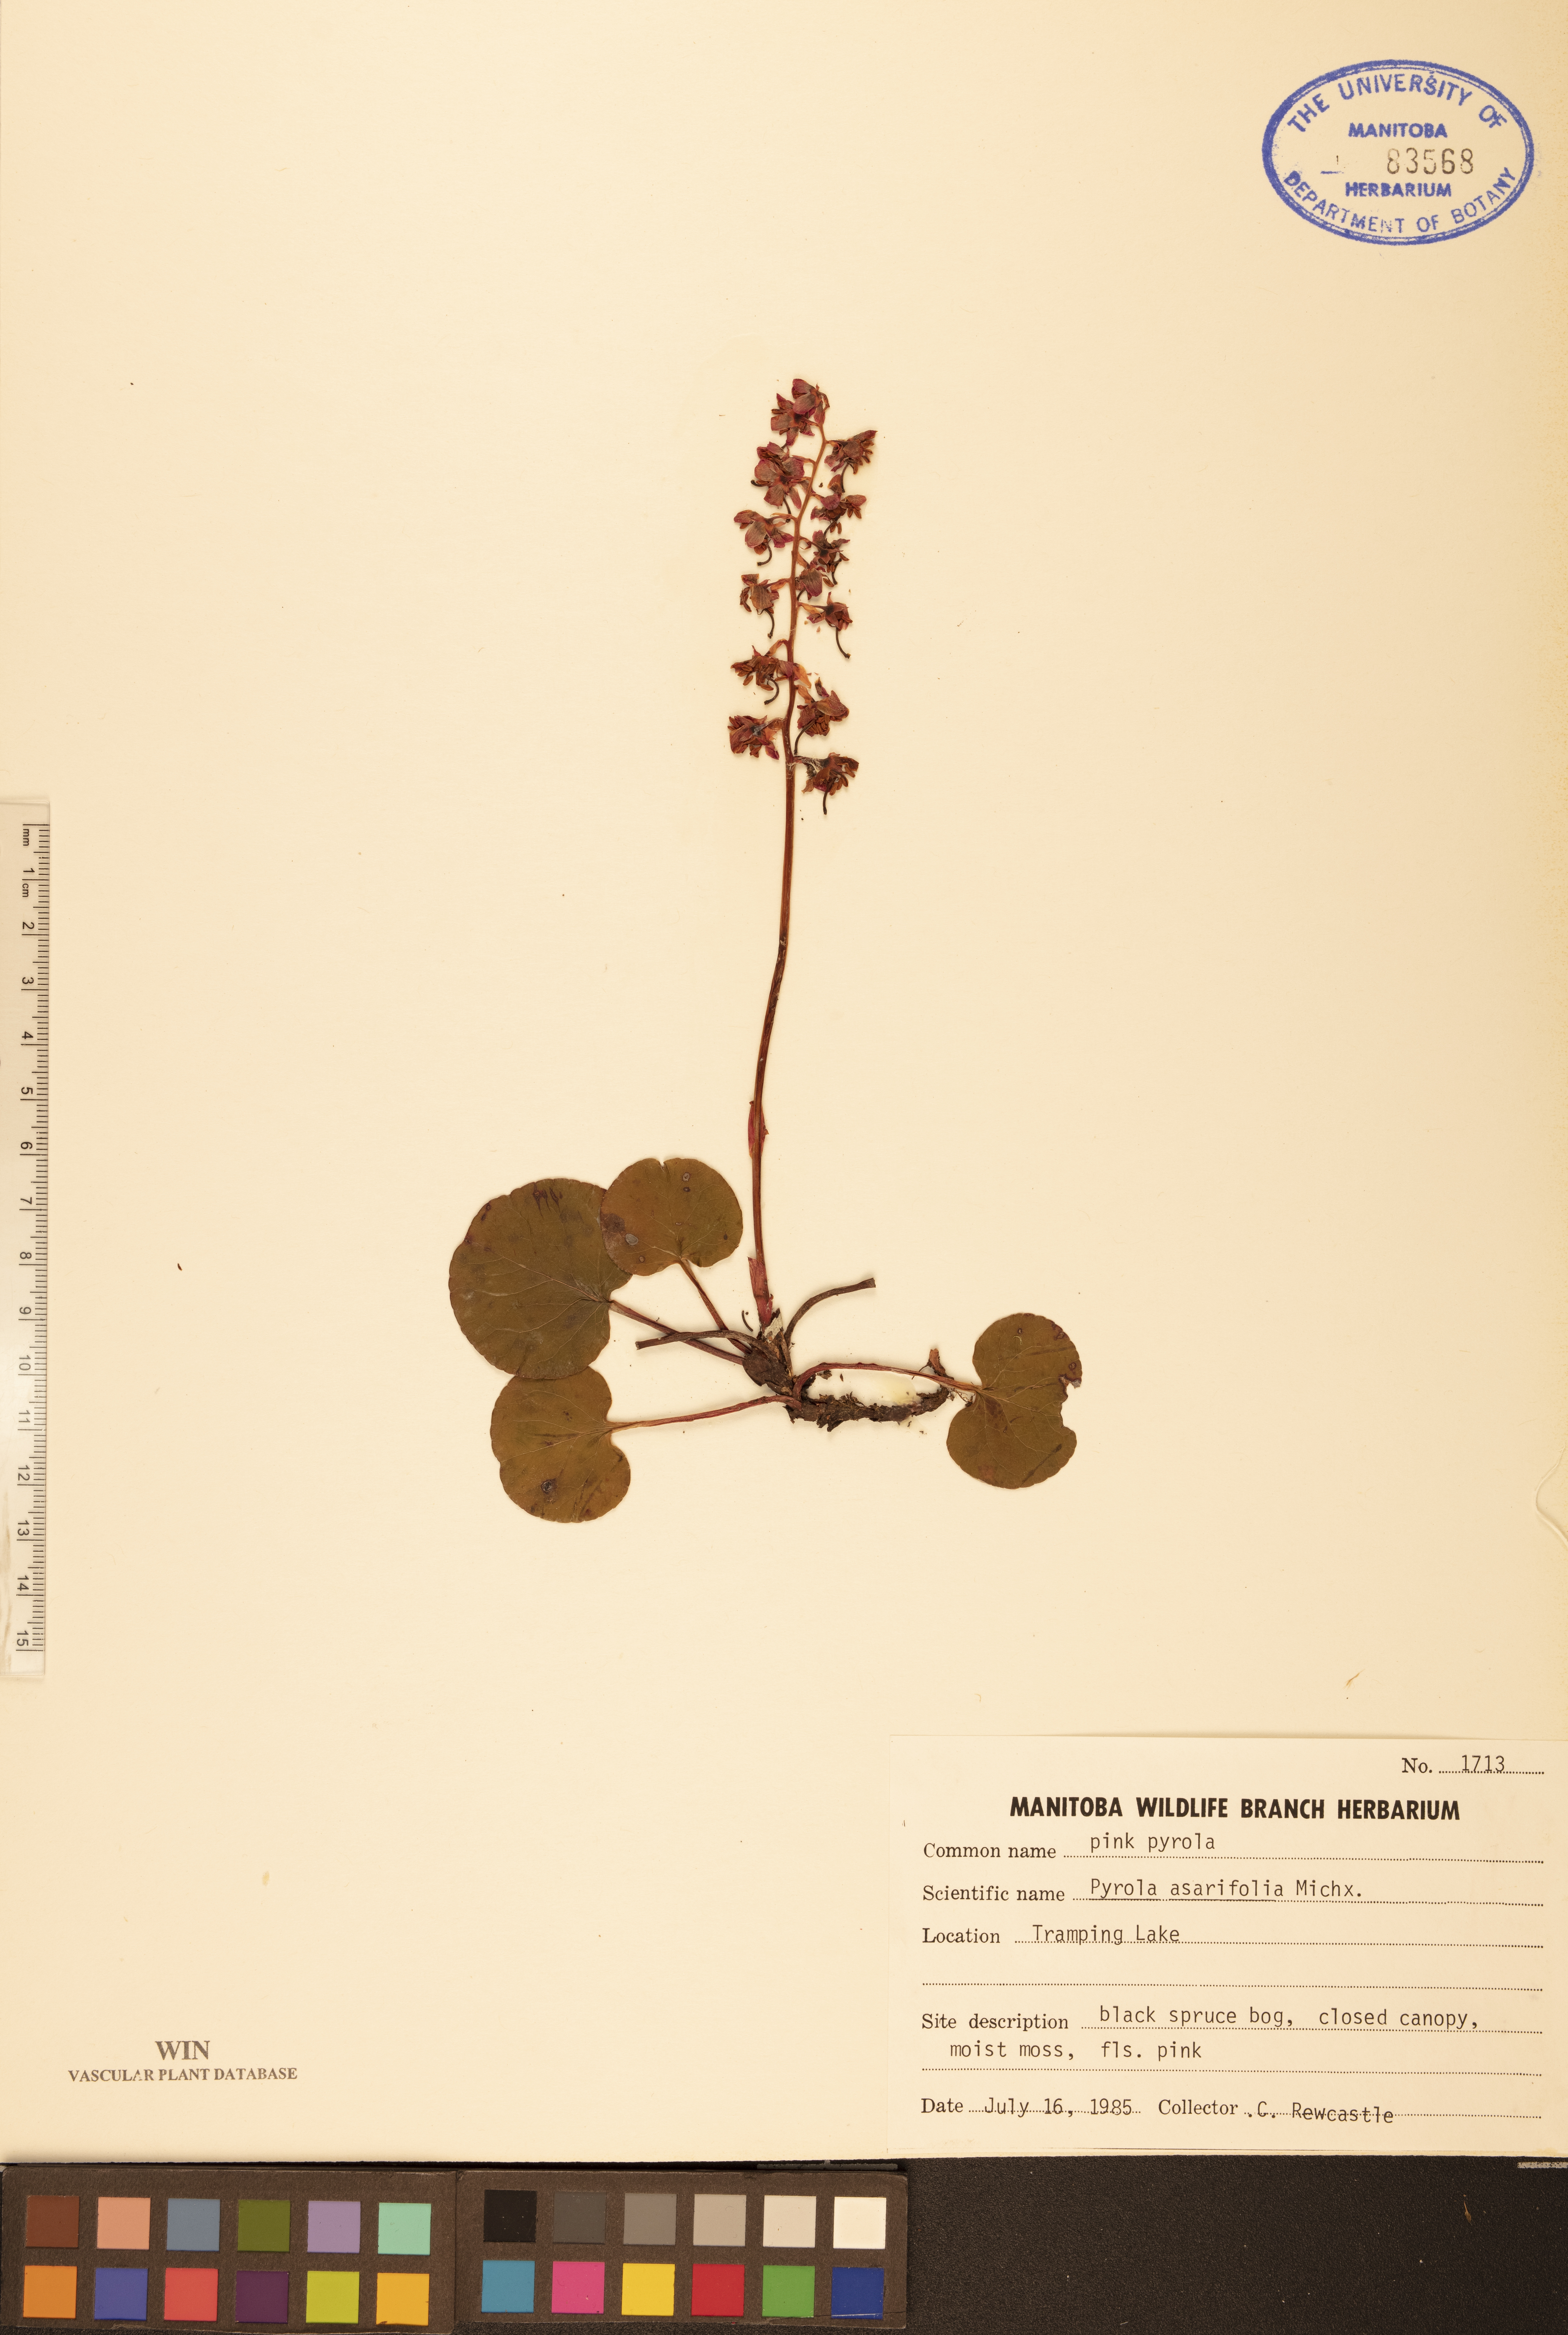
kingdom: Plantae
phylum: Tracheophyta
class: Magnoliopsida
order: Ericales
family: Ericaceae
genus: Pyrola
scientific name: Pyrola asarifolia
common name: Bog wintergreen
